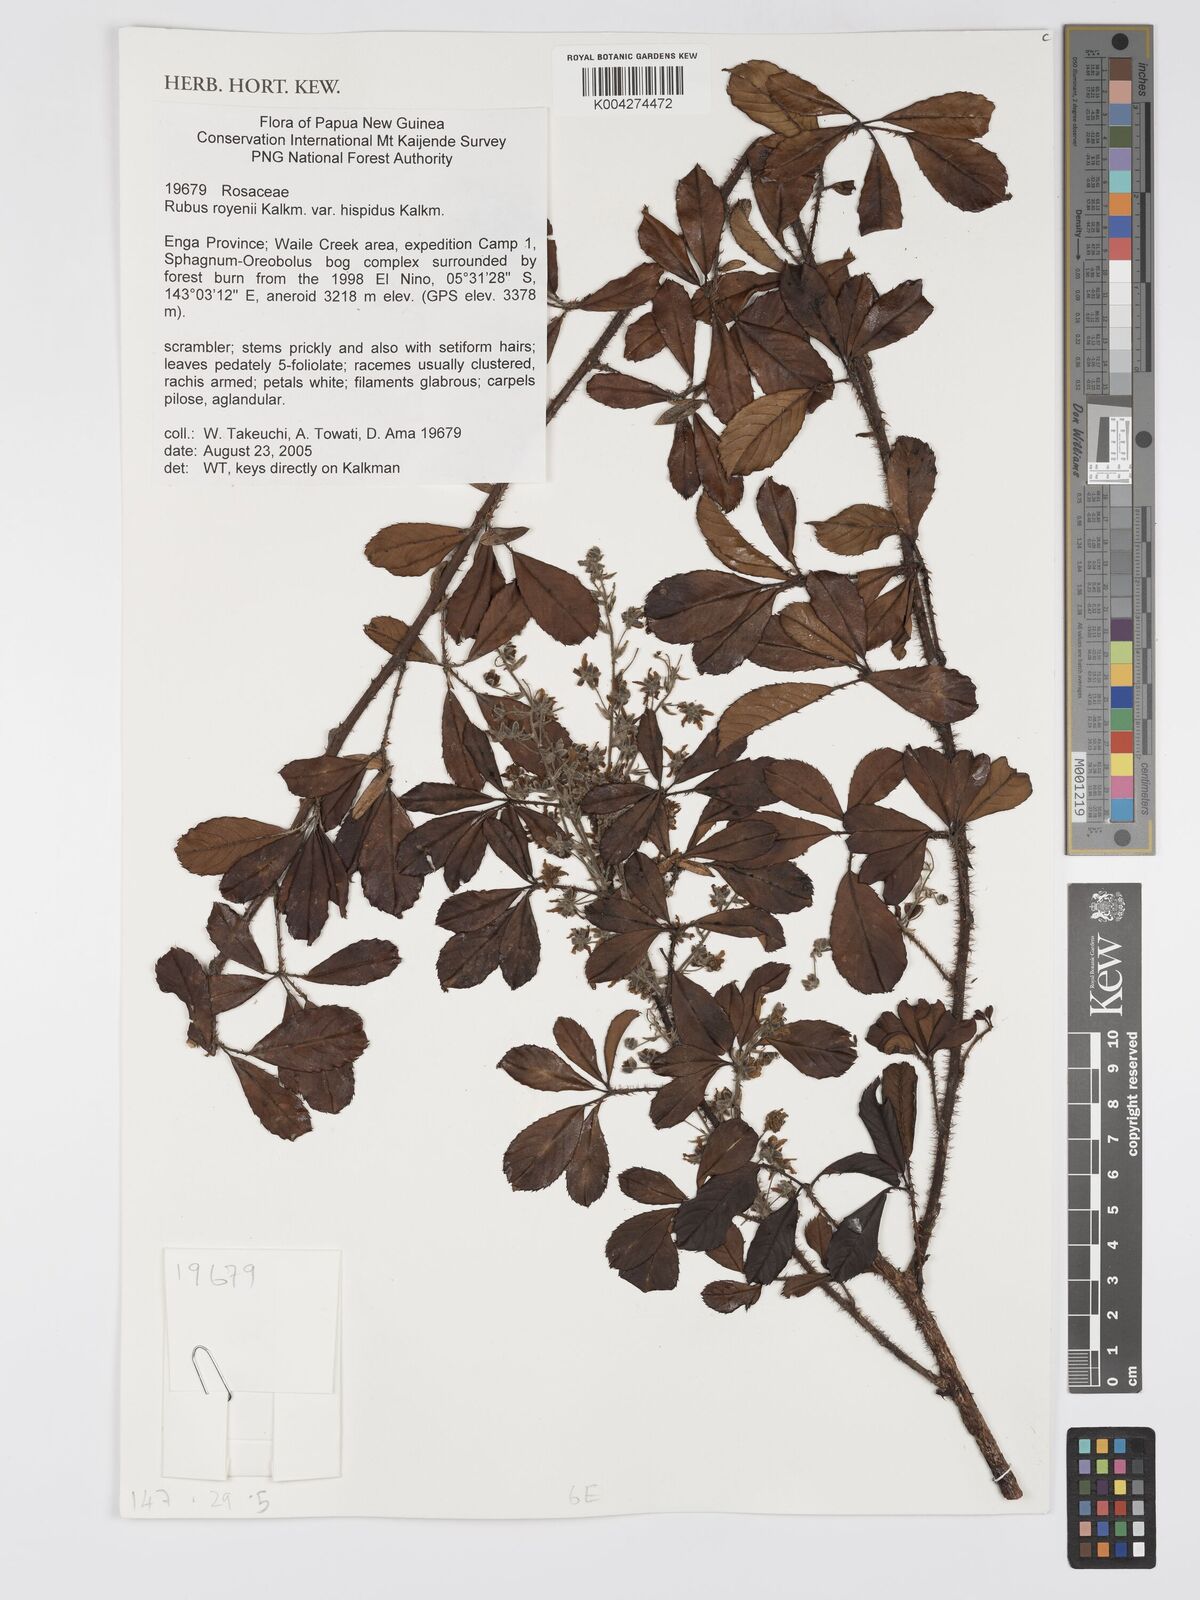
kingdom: Plantae
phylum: Tracheophyta
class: Magnoliopsida
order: Rosales
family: Rosaceae
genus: Rubus
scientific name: Rubus royenii
